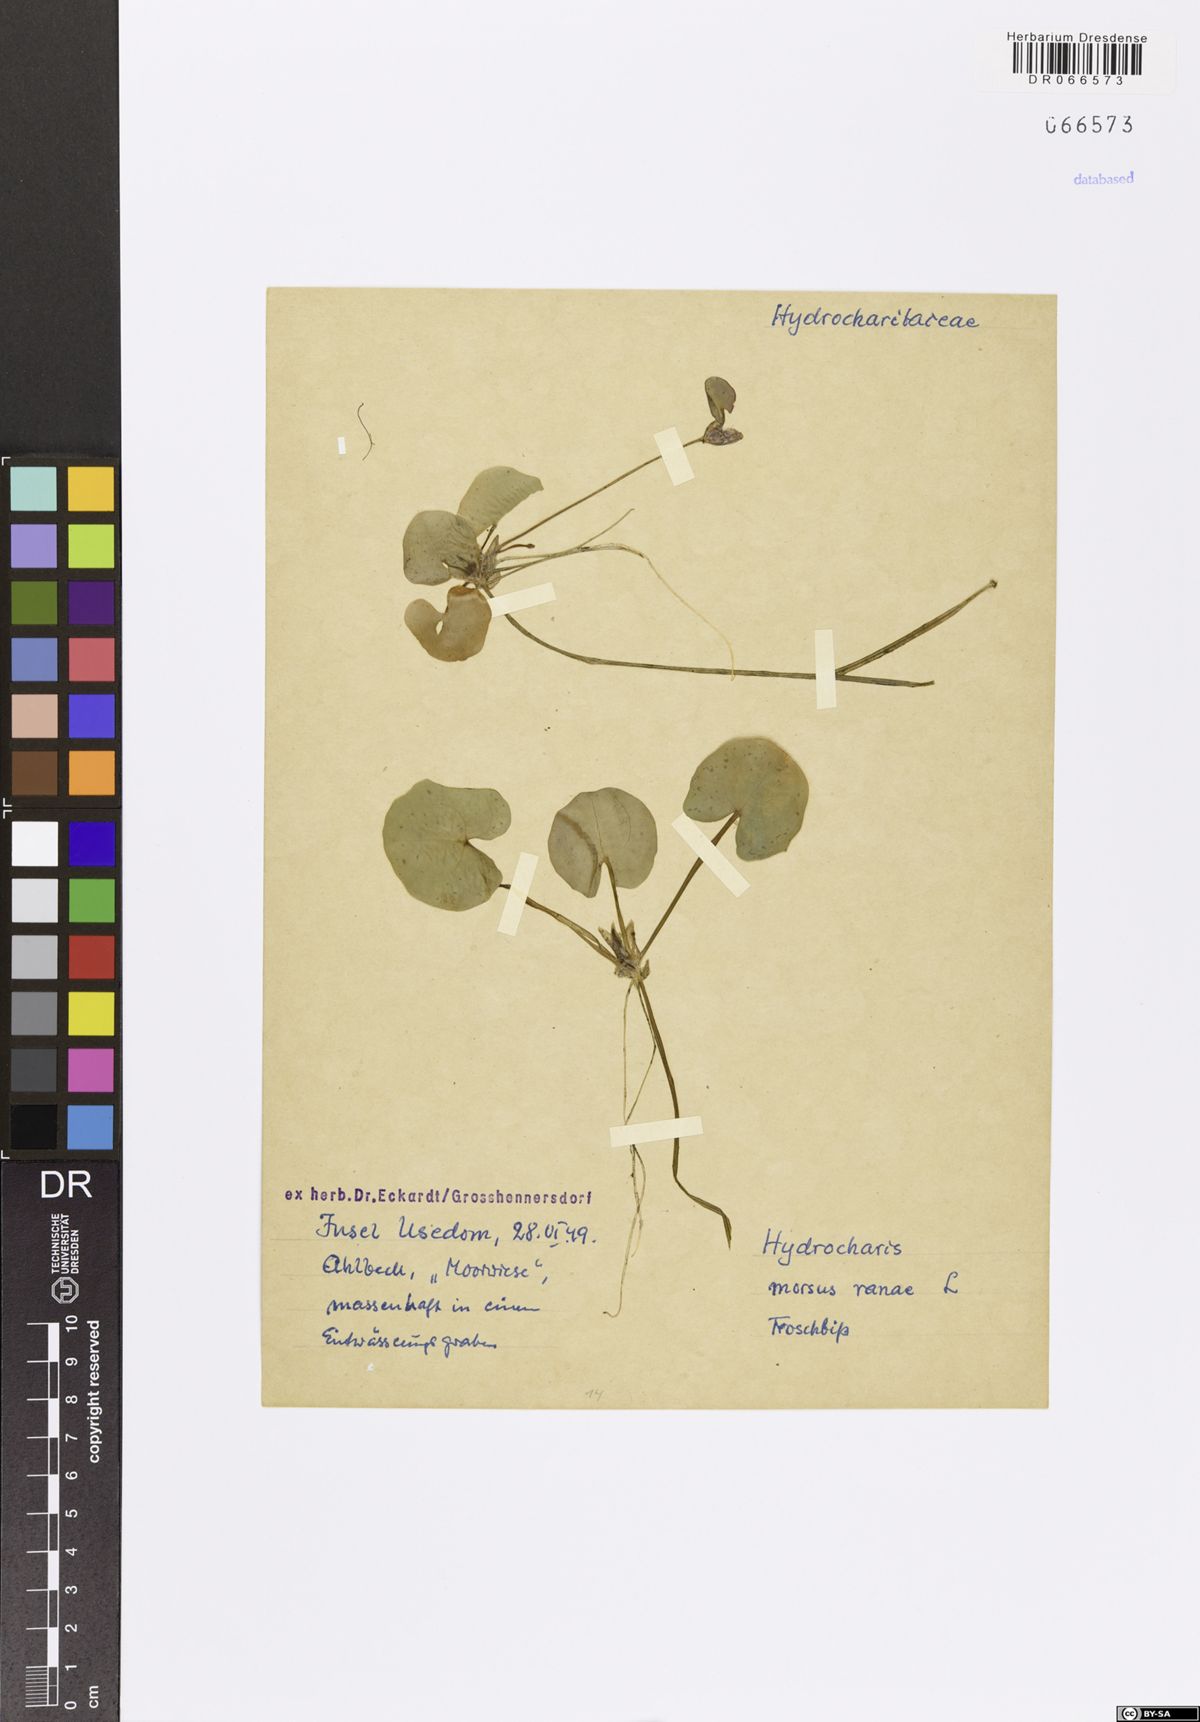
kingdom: Plantae
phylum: Tracheophyta
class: Liliopsida
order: Alismatales
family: Hydrocharitaceae
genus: Hydrocharis
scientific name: Hydrocharis morsus-ranae
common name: Frogbit
